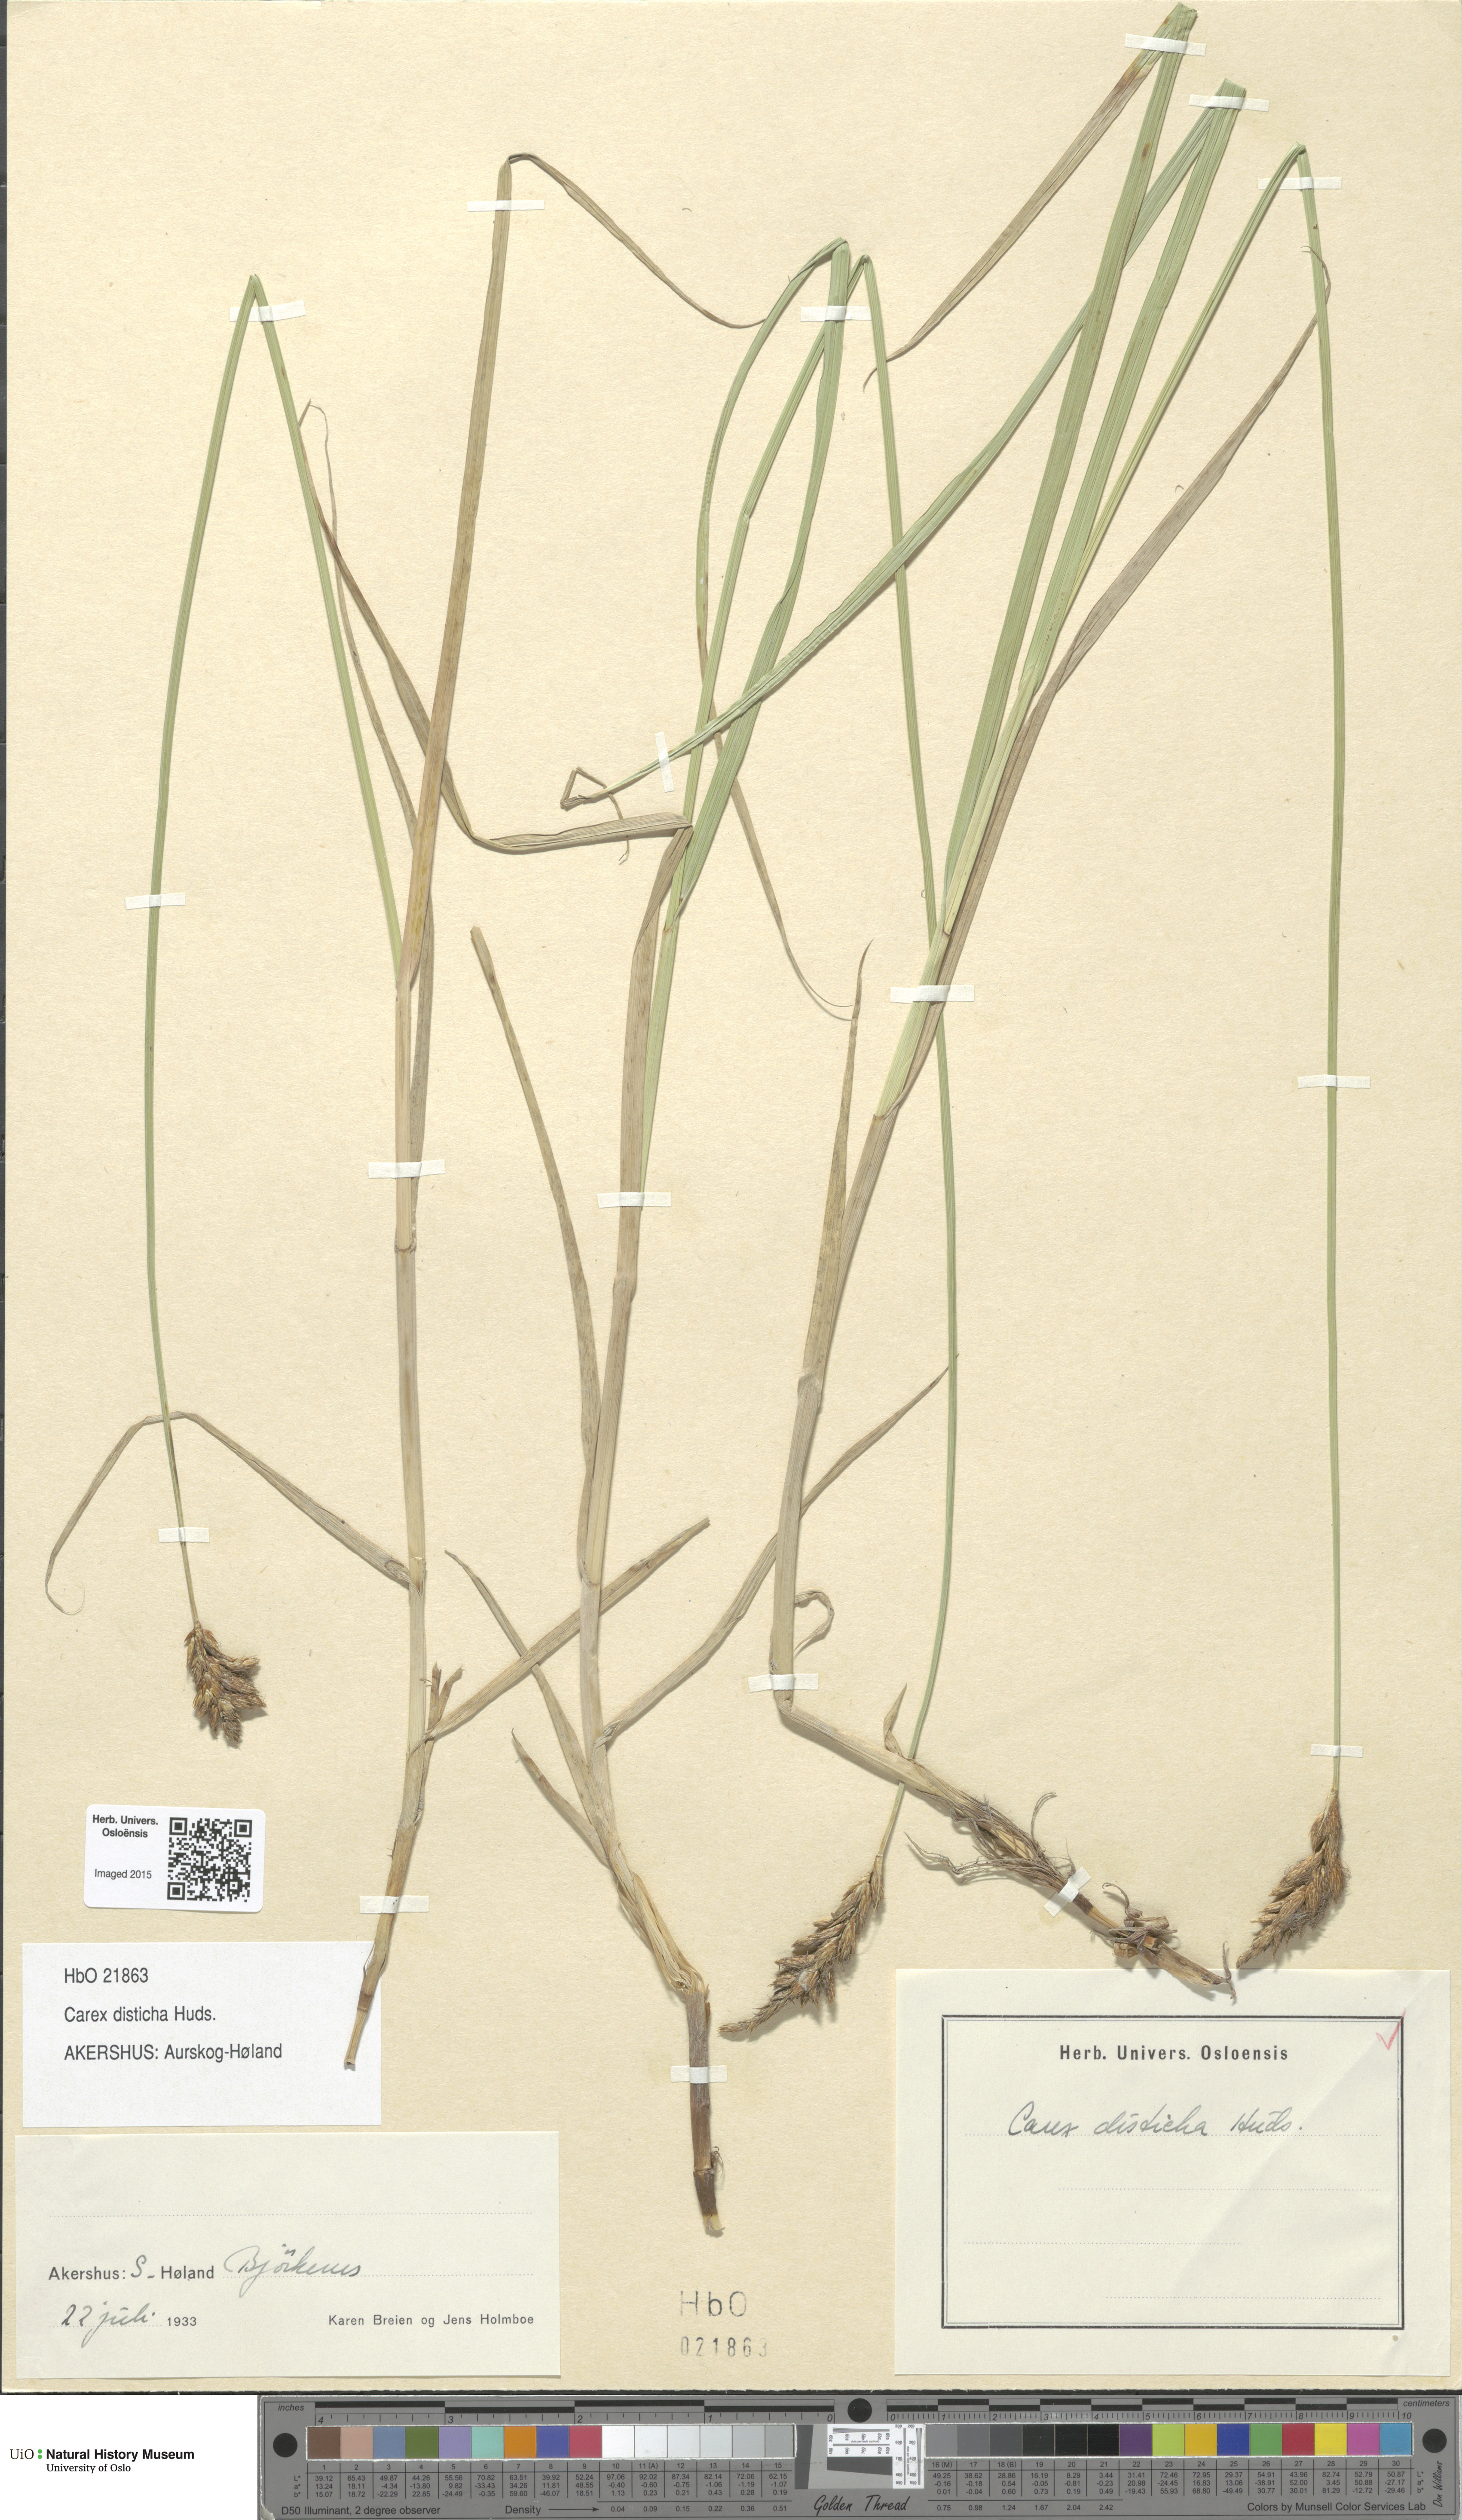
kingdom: Plantae
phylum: Tracheophyta
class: Liliopsida
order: Poales
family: Cyperaceae
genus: Carex
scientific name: Carex disticha
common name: Brown sedge
